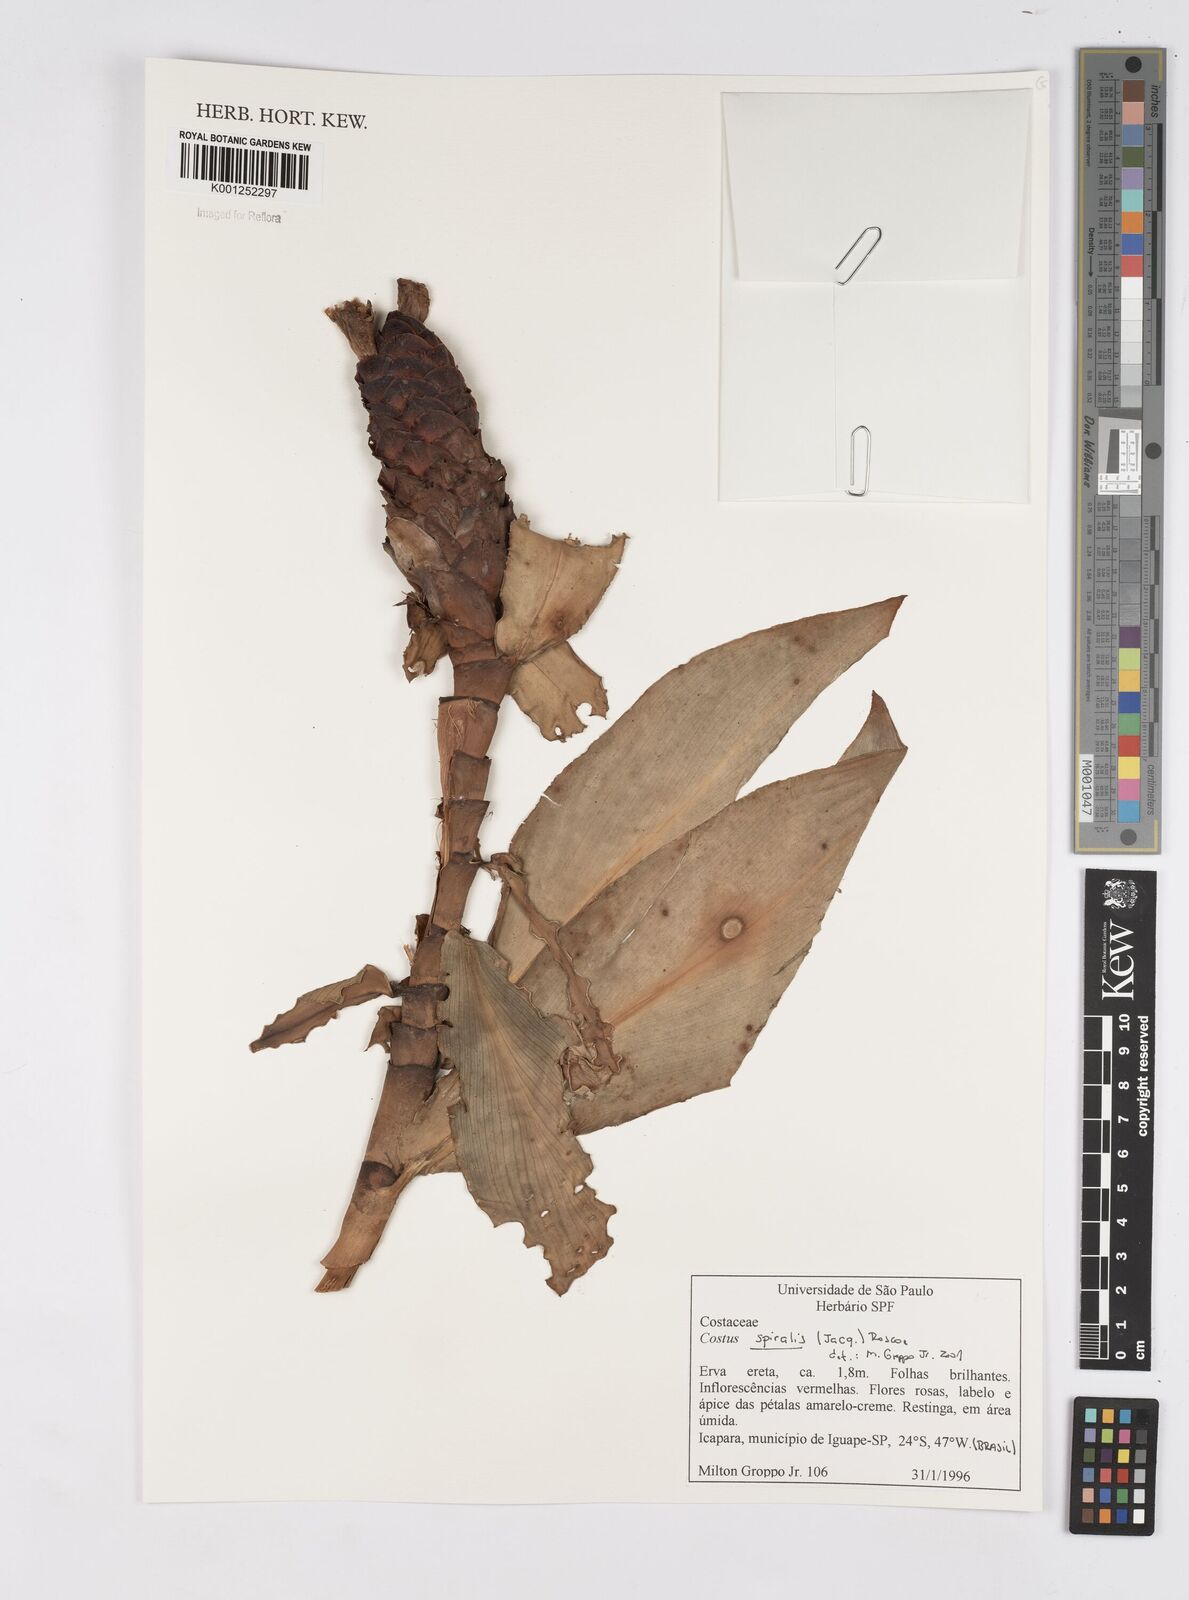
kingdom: Plantae
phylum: Tracheophyta
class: Liliopsida
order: Zingiberales
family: Costaceae
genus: Costus
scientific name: Costus spiralis
